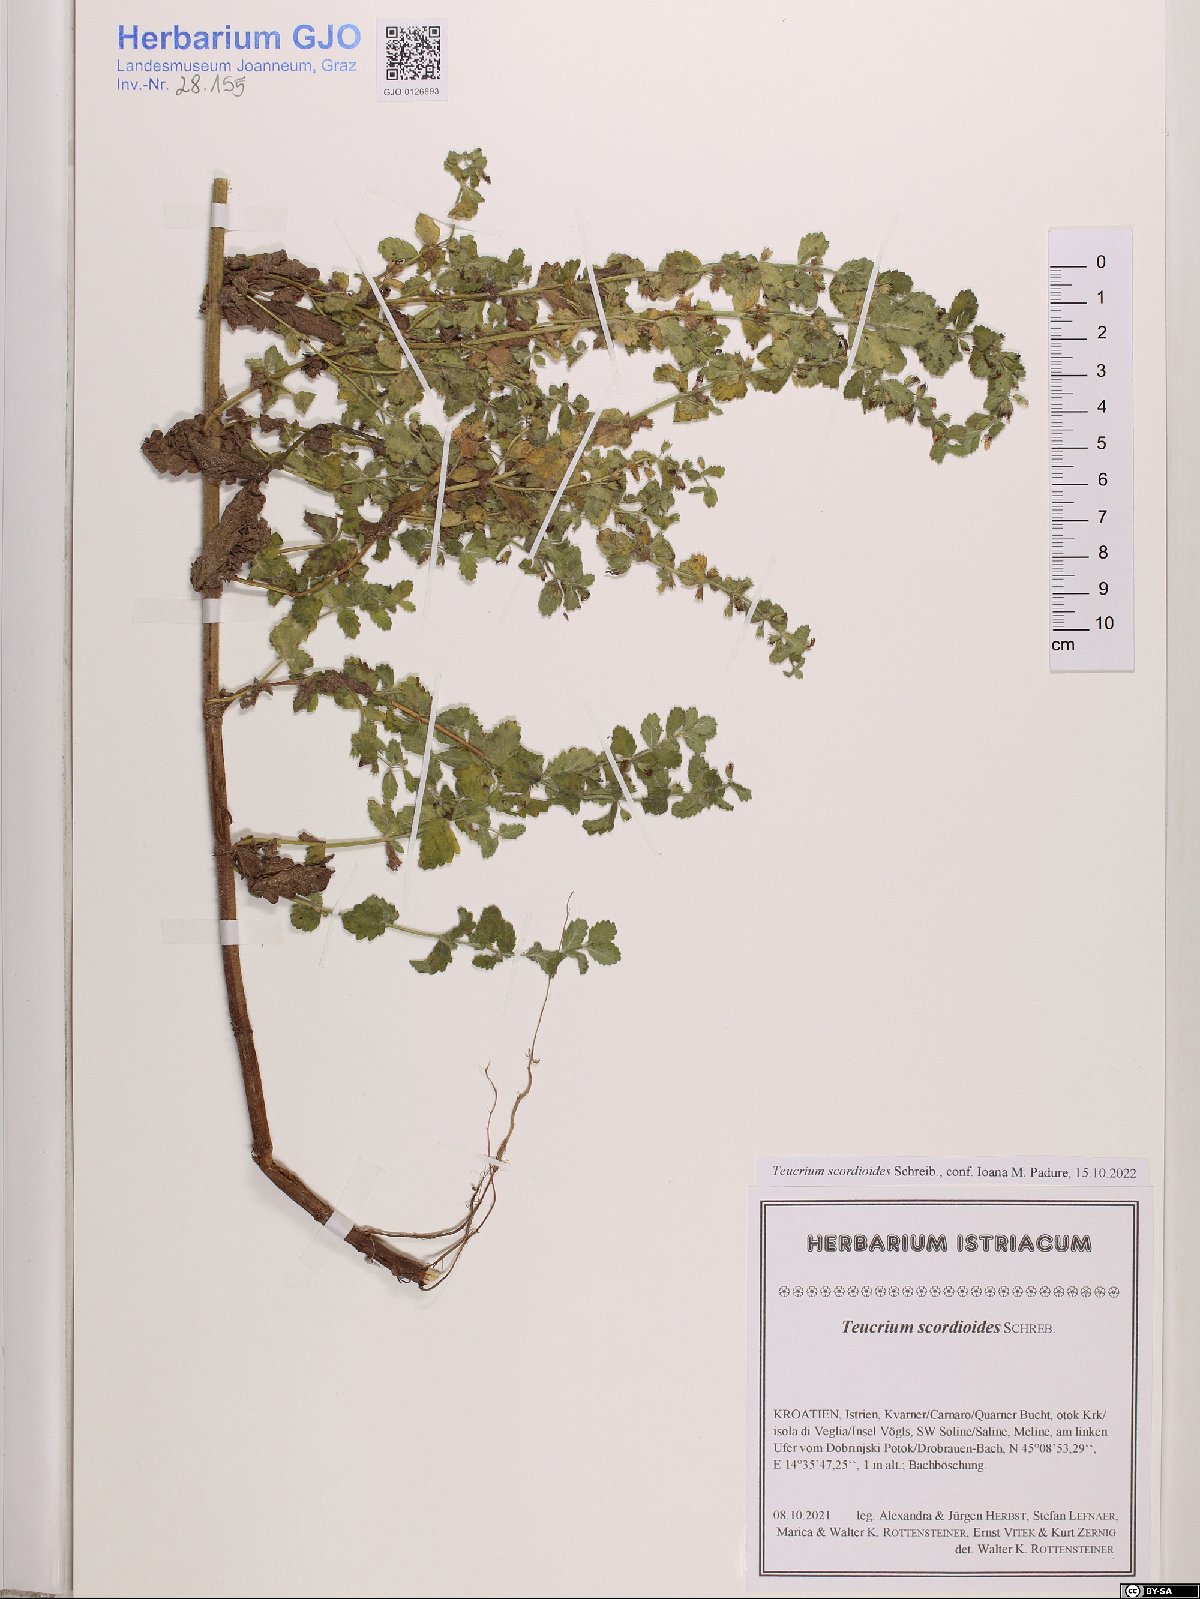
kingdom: Plantae
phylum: Tracheophyta
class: Magnoliopsida
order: Lamiales
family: Lamiaceae
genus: Teucrium
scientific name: Teucrium scordium
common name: Water germander
